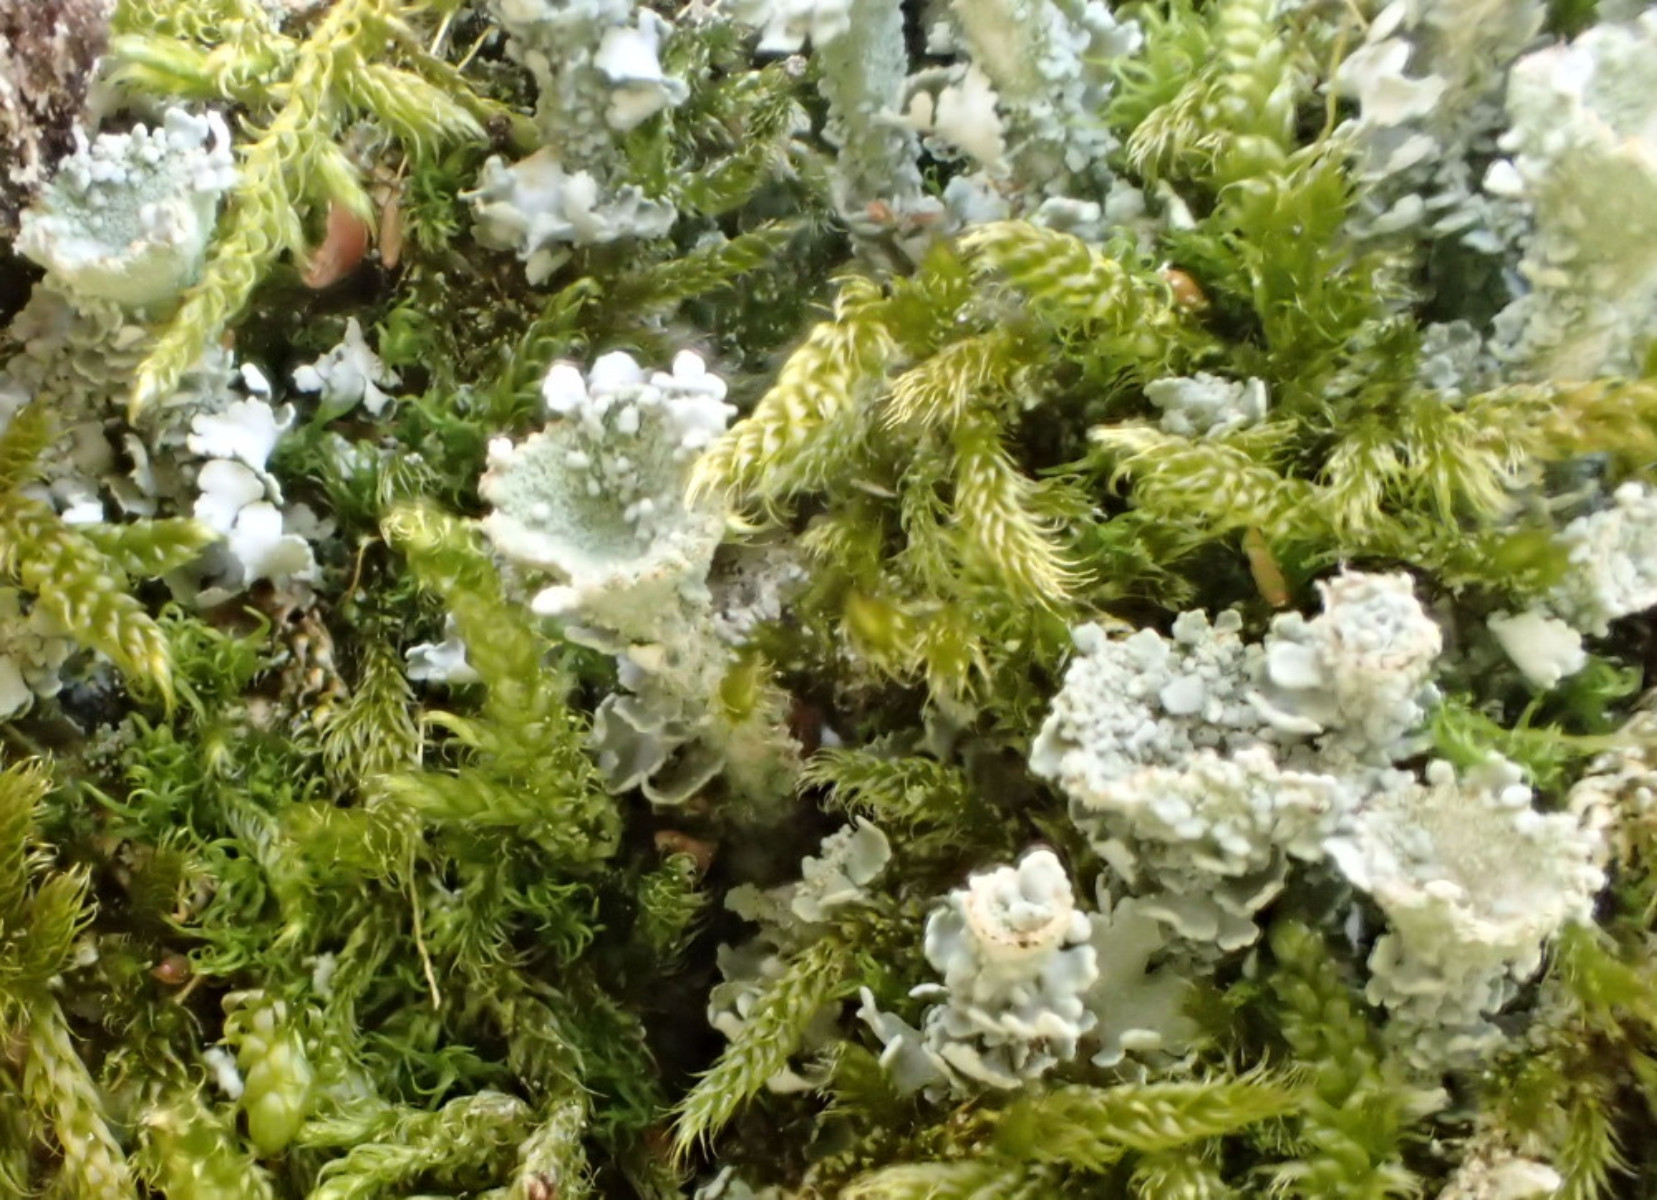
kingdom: Fungi
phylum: Ascomycota
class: Lecanoromycetes
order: Lecanorales
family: Cladoniaceae
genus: Cladonia
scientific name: Cladonia fimbriata
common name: bleggrøn bægerlav
